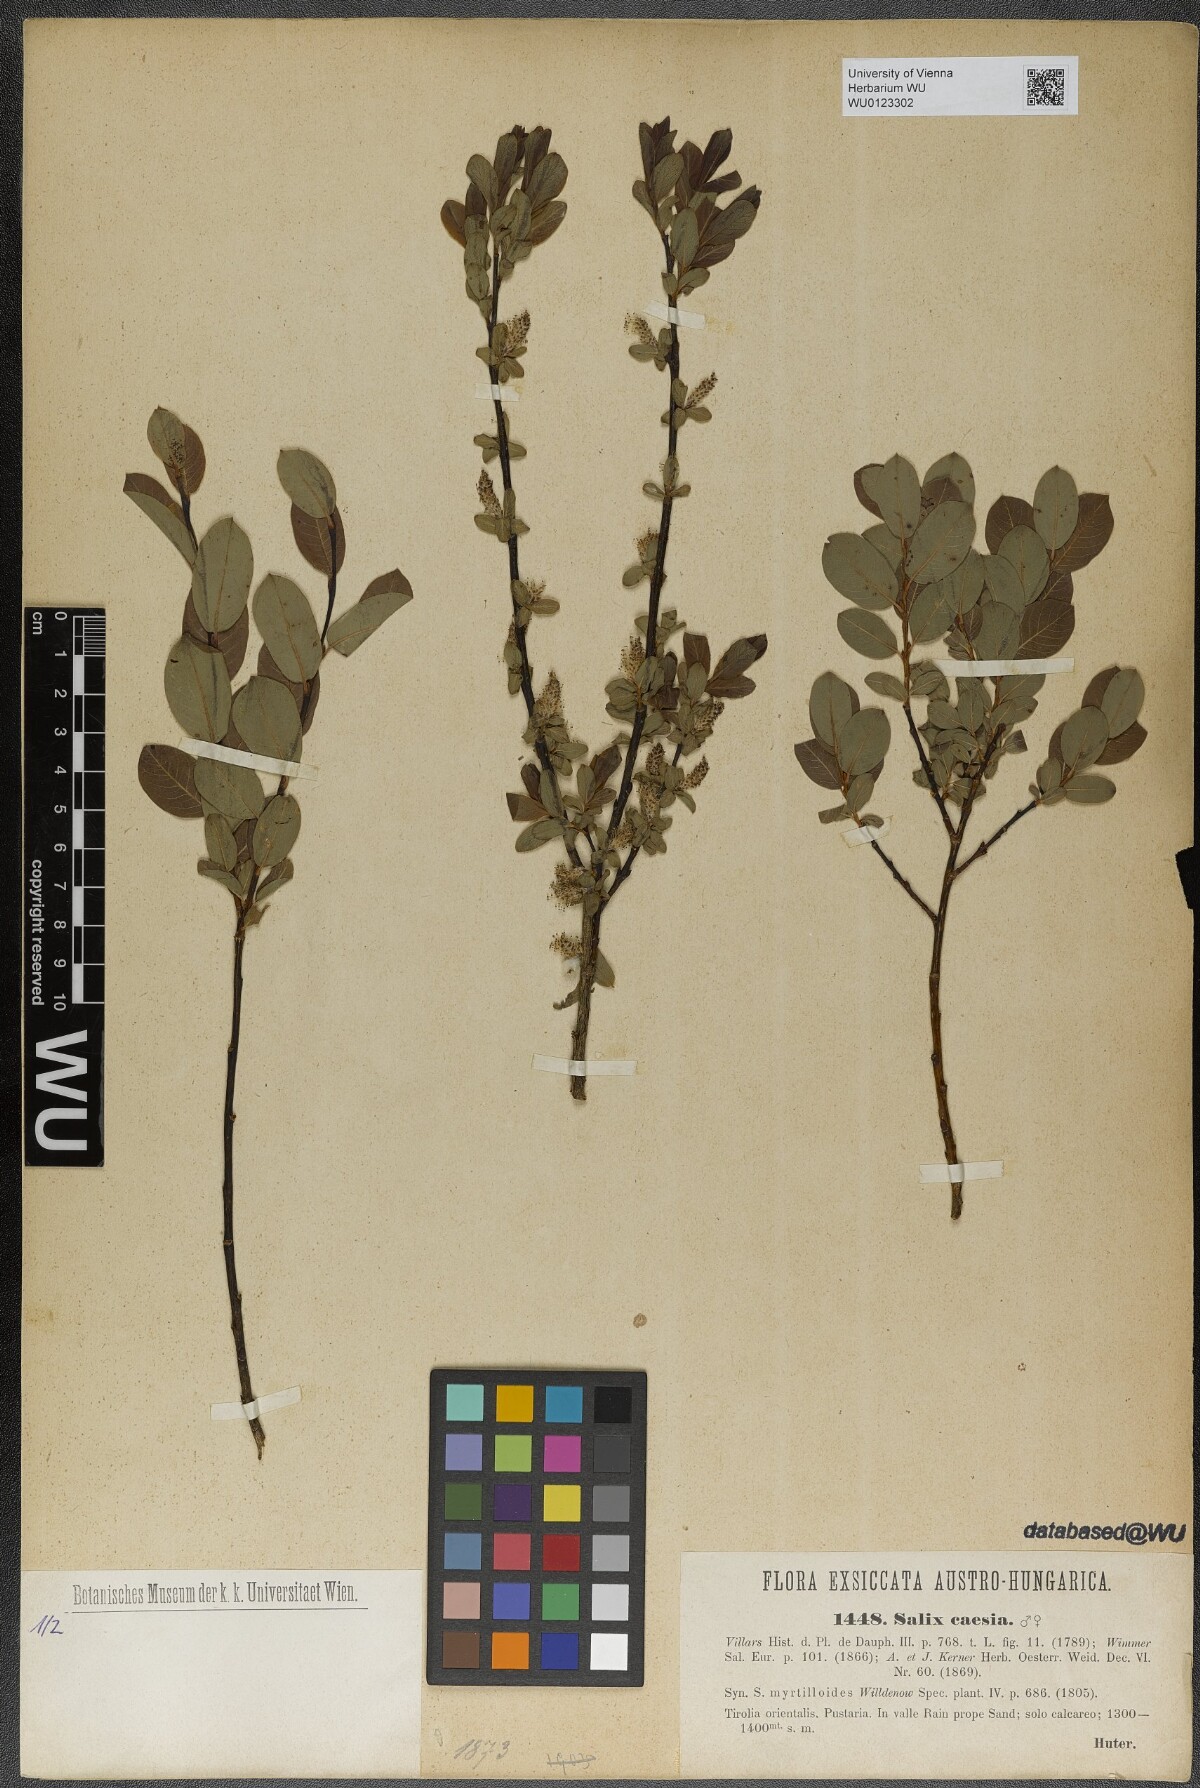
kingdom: Plantae
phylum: Tracheophyta
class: Magnoliopsida
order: Malpighiales
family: Salicaceae
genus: Salix
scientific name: Salix caesia
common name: Blue willow
